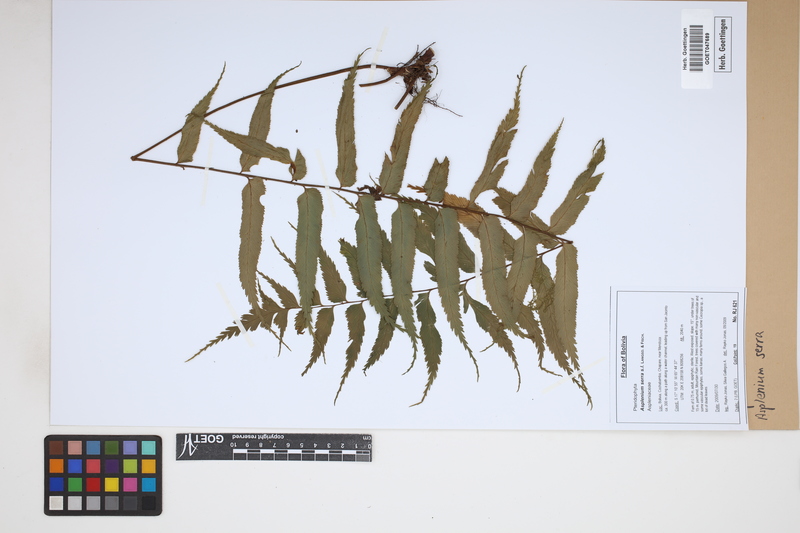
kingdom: Plantae
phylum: Tracheophyta
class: Polypodiopsida
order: Polypodiales
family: Aspleniaceae
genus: Asplenium
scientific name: Asplenium serra
